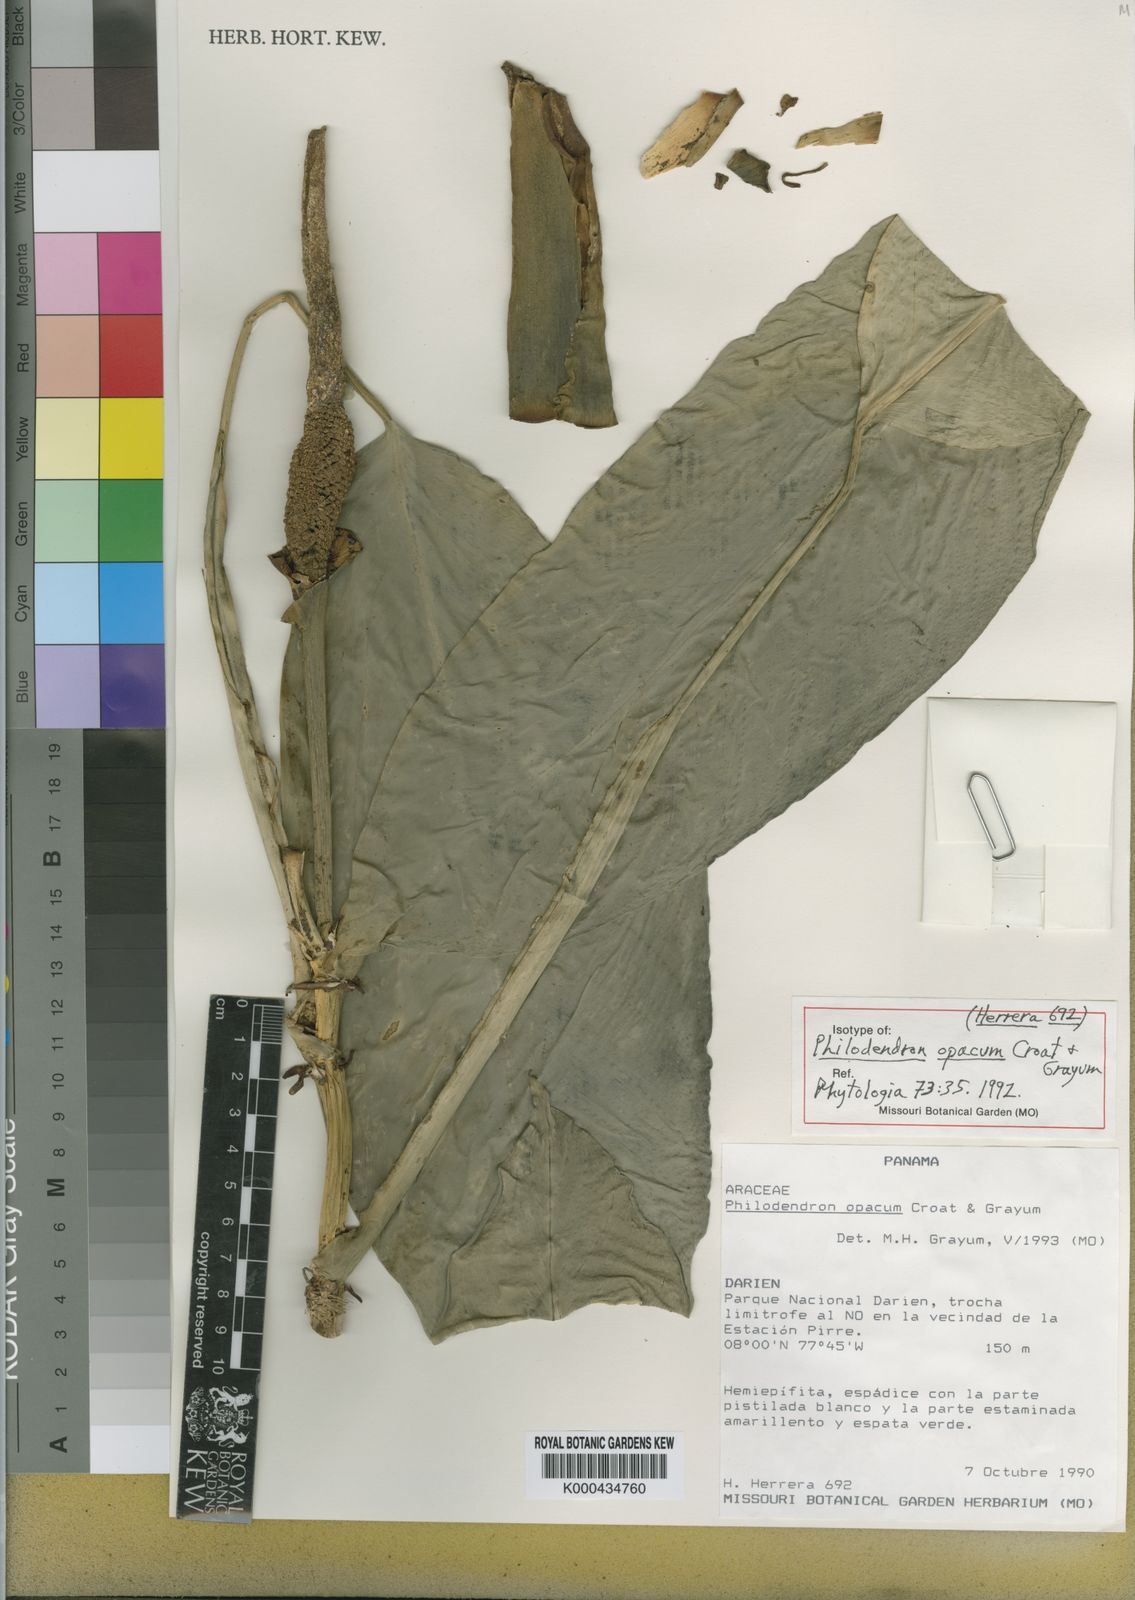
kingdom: Plantae
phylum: Tracheophyta
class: Liliopsida
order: Alismatales
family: Araceae
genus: Philodendron
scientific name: Philodendron opacum
